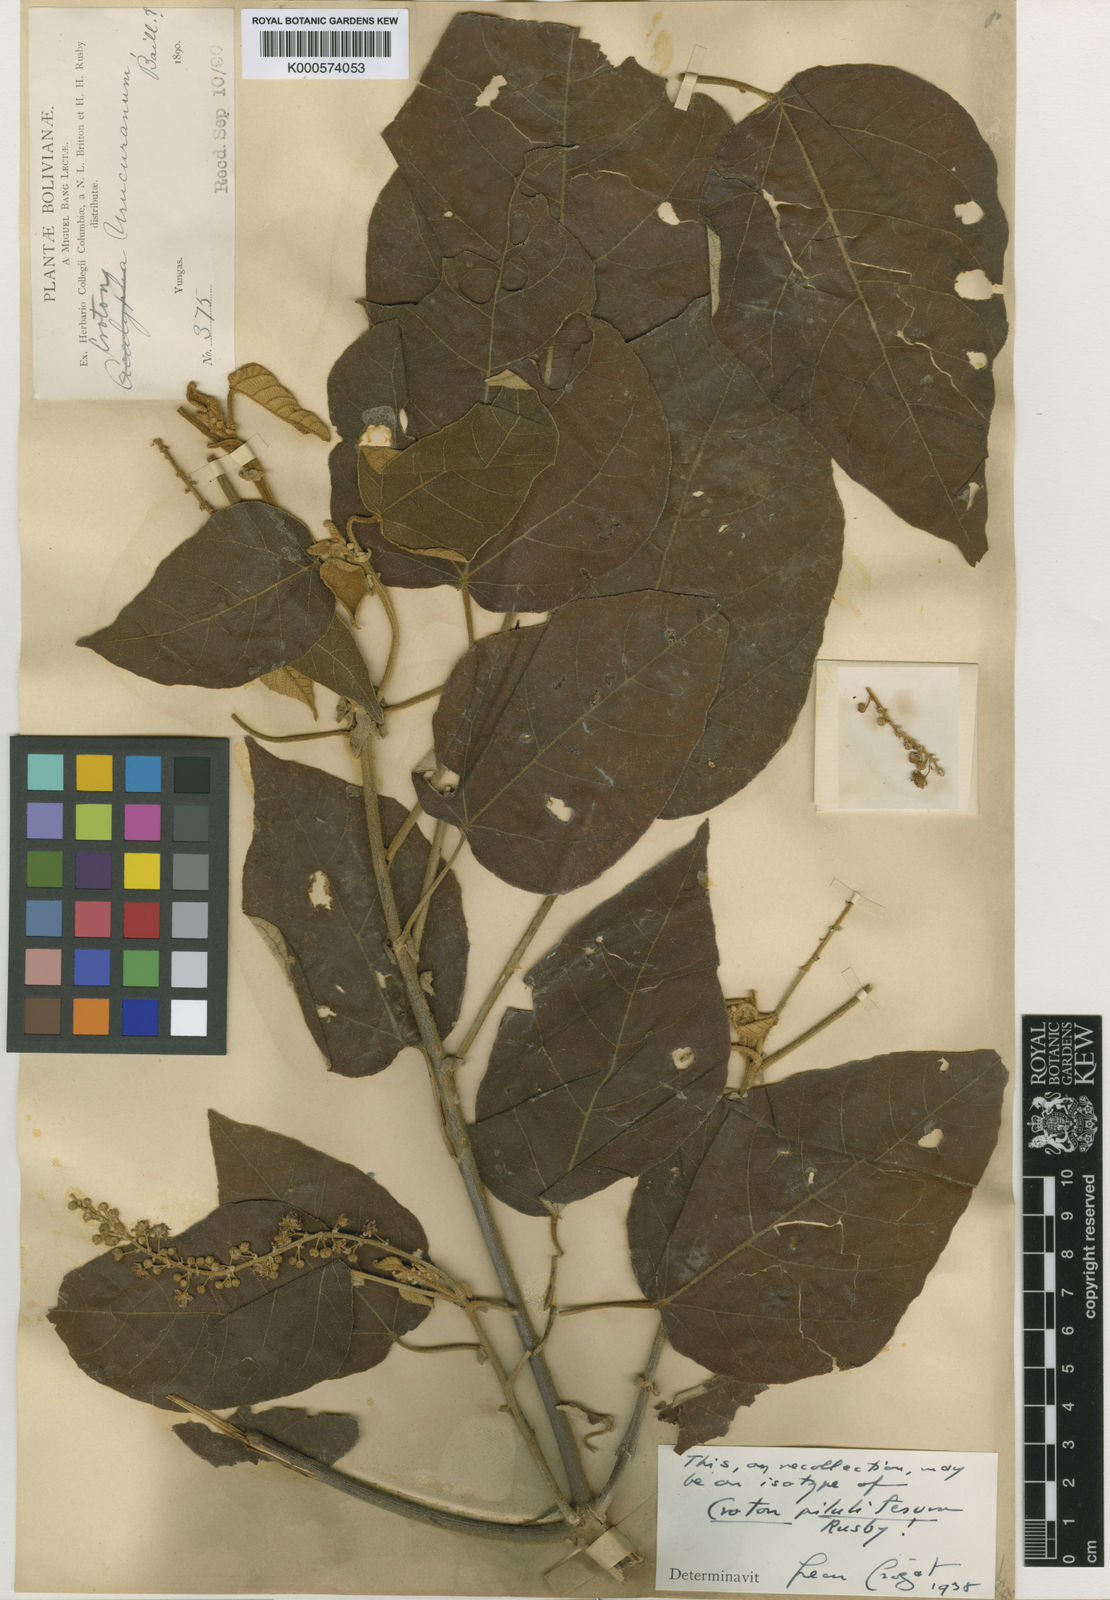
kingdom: Plantae
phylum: Tracheophyta
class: Magnoliopsida
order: Malpighiales
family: Euphorbiaceae
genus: Croton
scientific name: Croton
